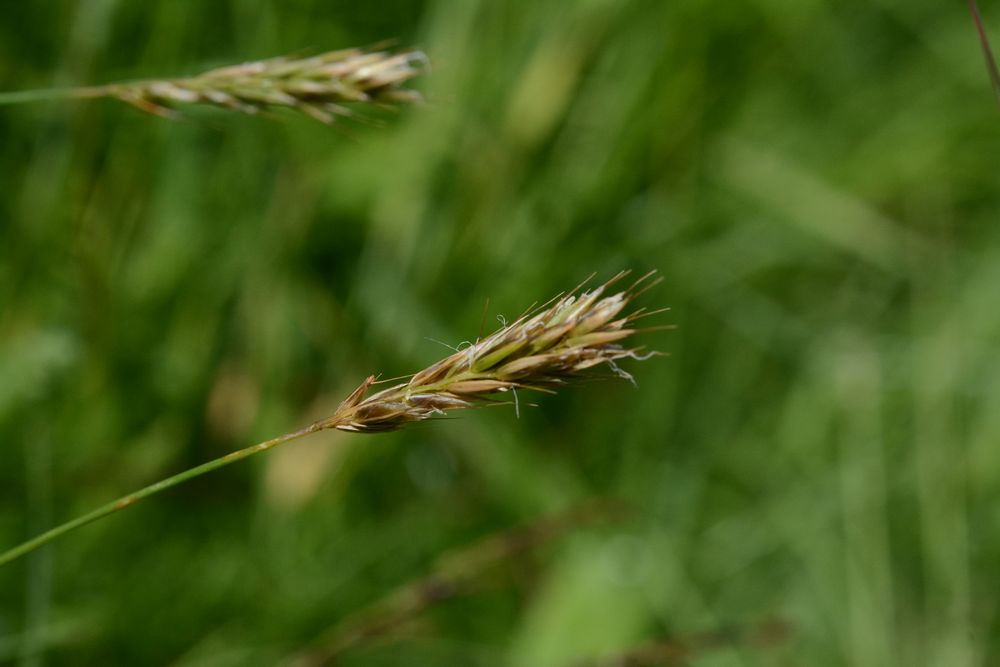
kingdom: Plantae
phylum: Tracheophyta
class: Liliopsida
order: Poales
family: Poaceae
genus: Anthoxanthum
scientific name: Anthoxanthum nipponicum
